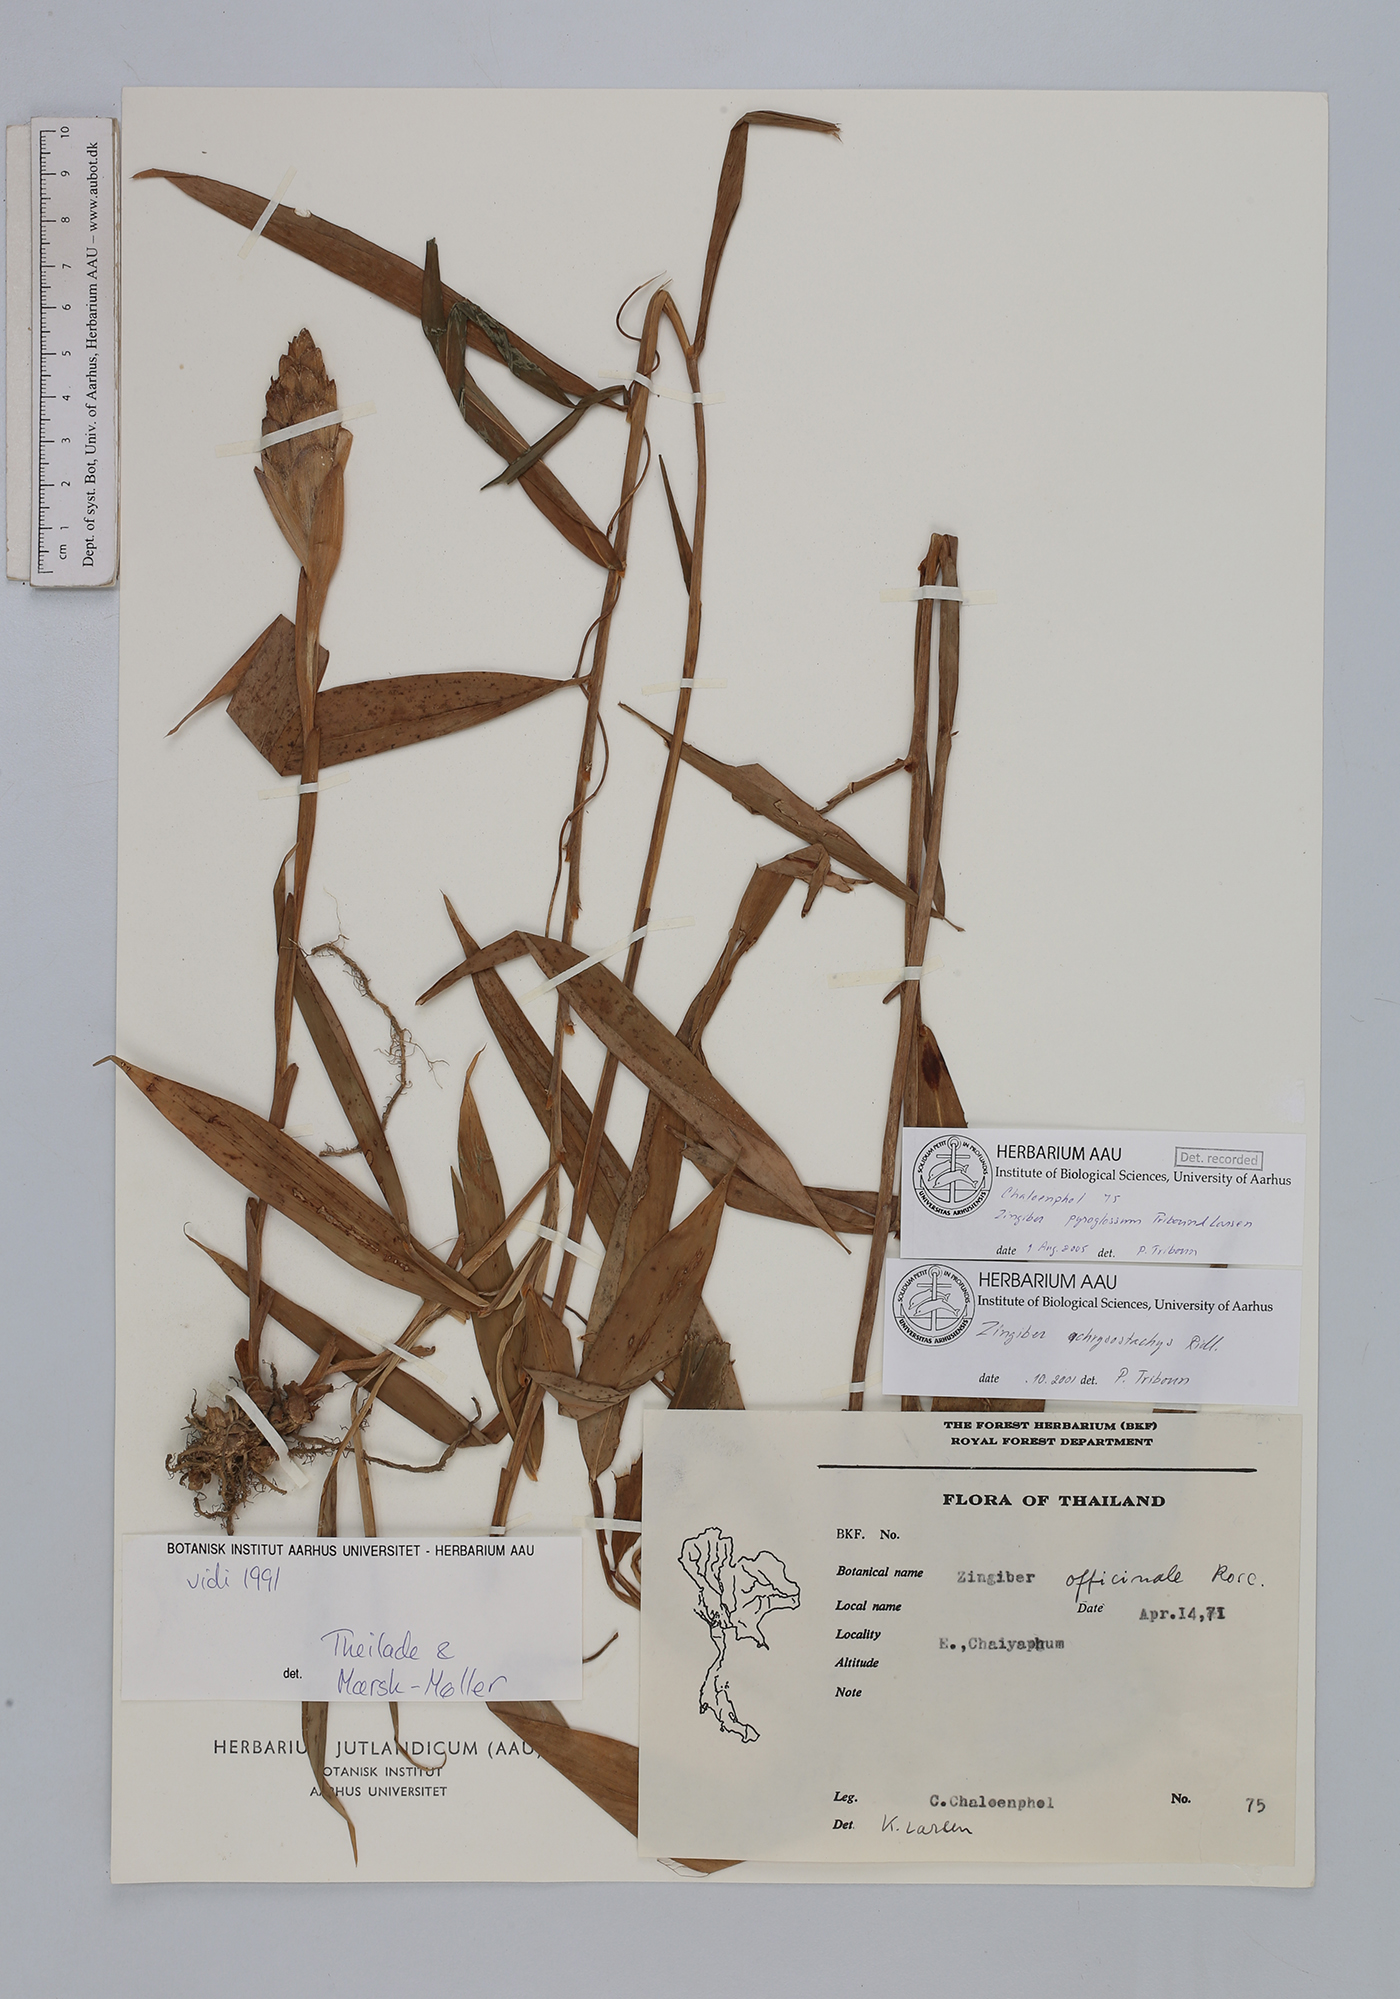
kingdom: Plantae
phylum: Tracheophyta
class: Liliopsida
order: Zingiberales
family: Zingiberaceae
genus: Zingiber
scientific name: Zingiber pyroglossum
